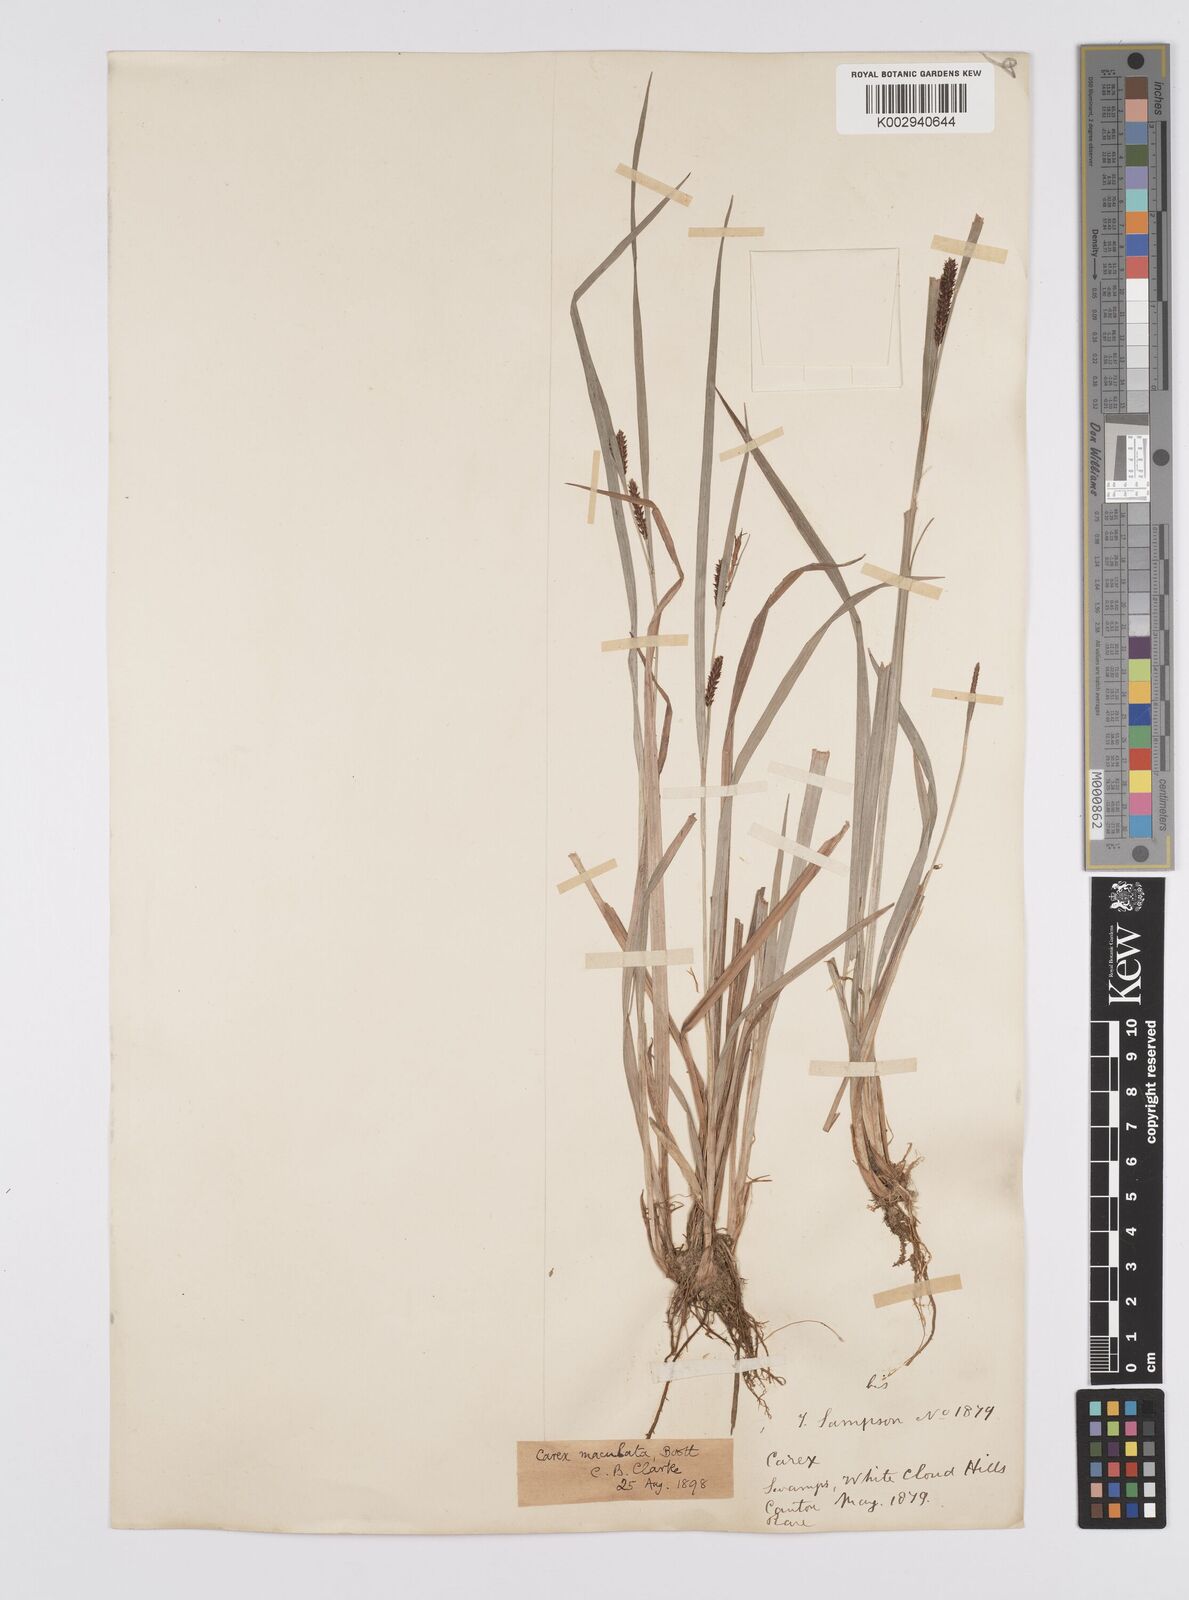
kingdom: Plantae
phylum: Tracheophyta
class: Liliopsida
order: Poales
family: Cyperaceae
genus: Carex
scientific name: Carex maculata
